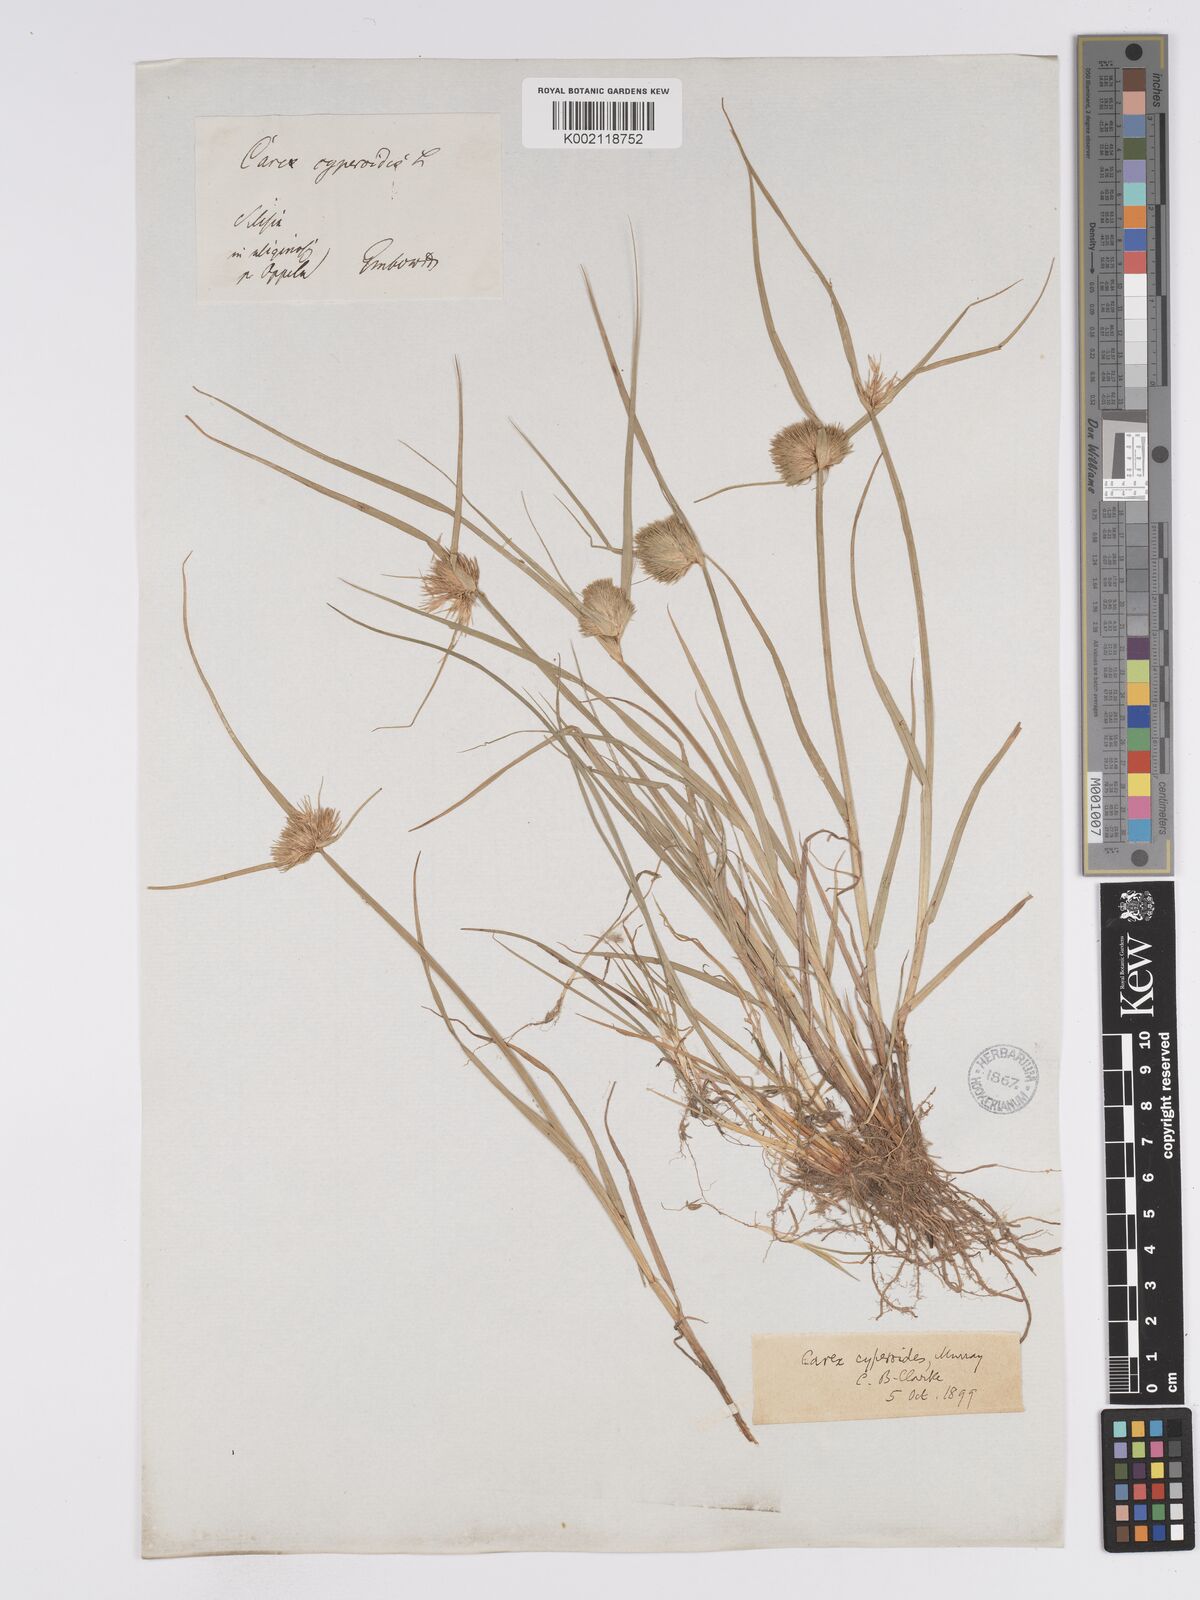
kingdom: Plantae
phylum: Tracheophyta
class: Liliopsida
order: Poales
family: Cyperaceae
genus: Carex
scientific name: Carex bohemica
